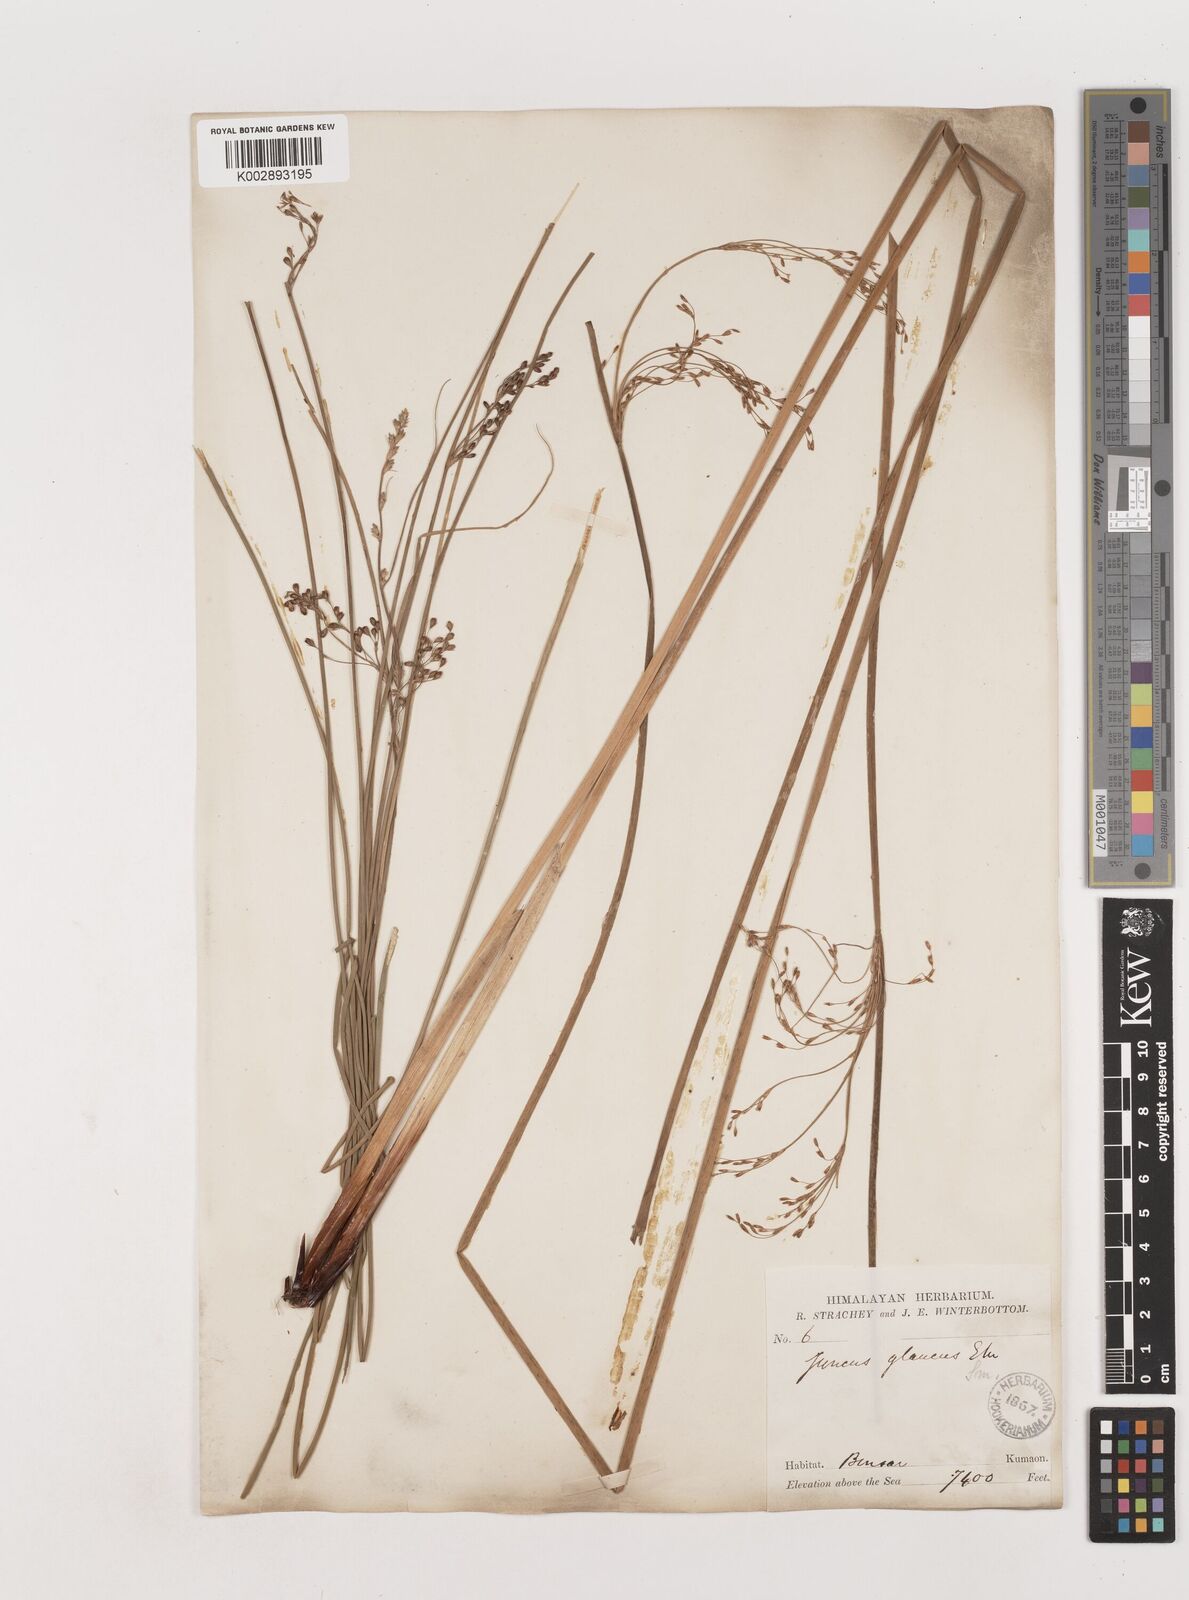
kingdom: Plantae
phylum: Tracheophyta
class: Liliopsida
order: Poales
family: Juncaceae
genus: Juncus
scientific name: Juncus inflexus
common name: Hard rush
